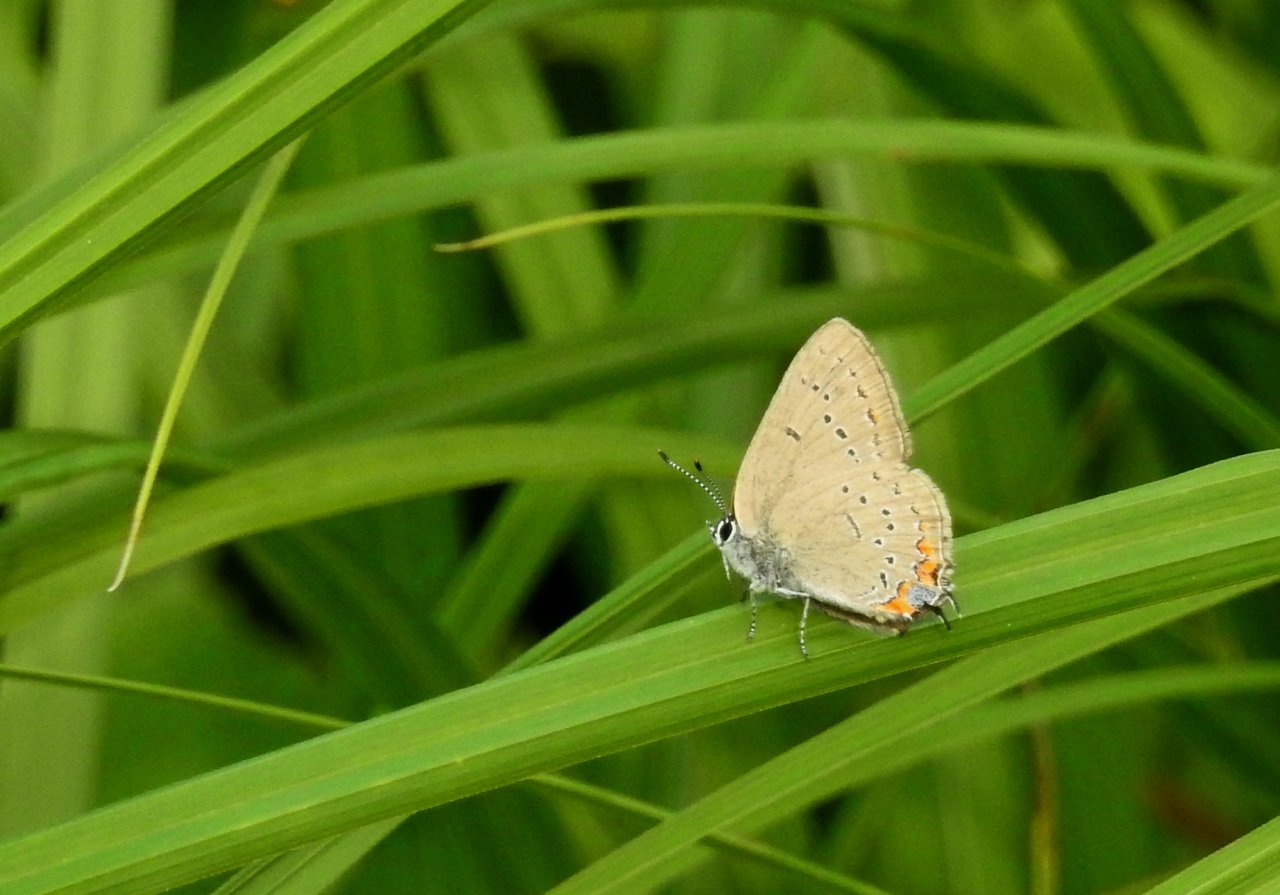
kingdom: Animalia
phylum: Arthropoda
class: Insecta
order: Lepidoptera
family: Lycaenidae
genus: Strymon
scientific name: Strymon acadica
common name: Acadian Hairstreak
